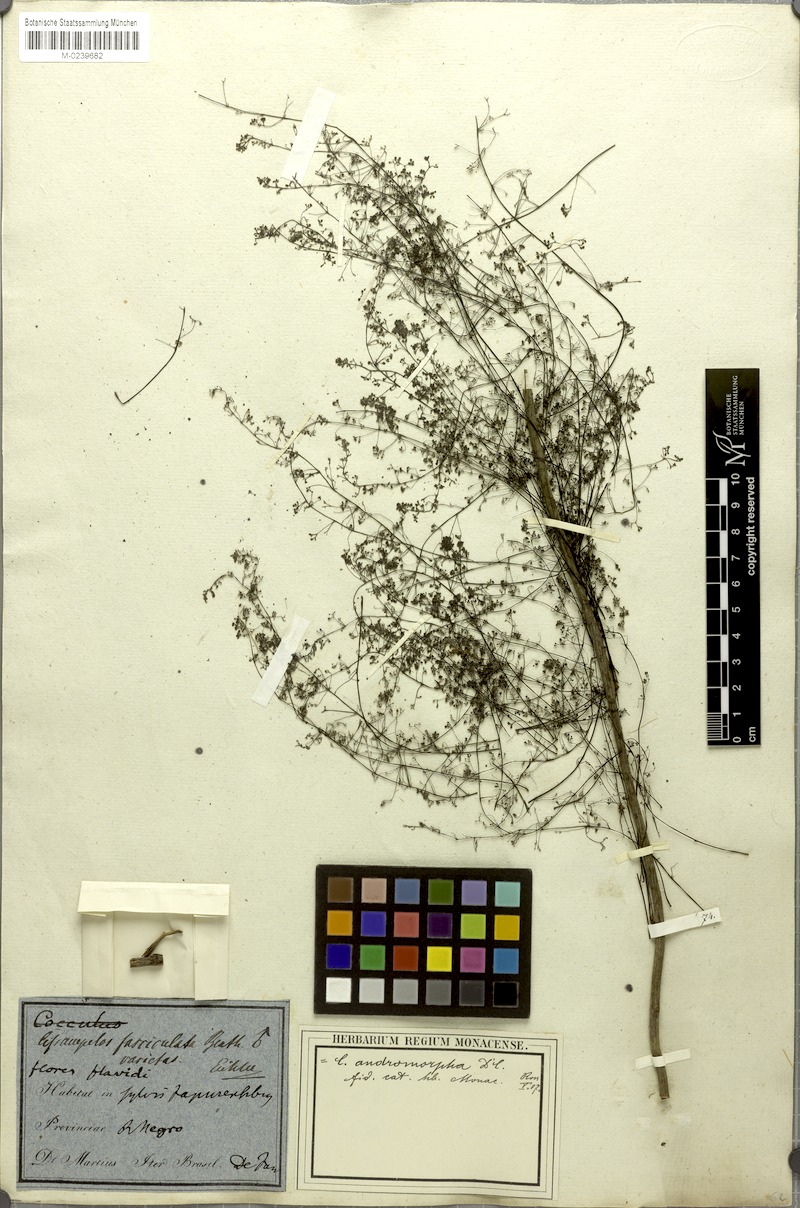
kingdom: Plantae
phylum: Tracheophyta
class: Magnoliopsida
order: Ranunculales
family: Menispermaceae
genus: Cissampelos
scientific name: Cissampelos andromorpha
